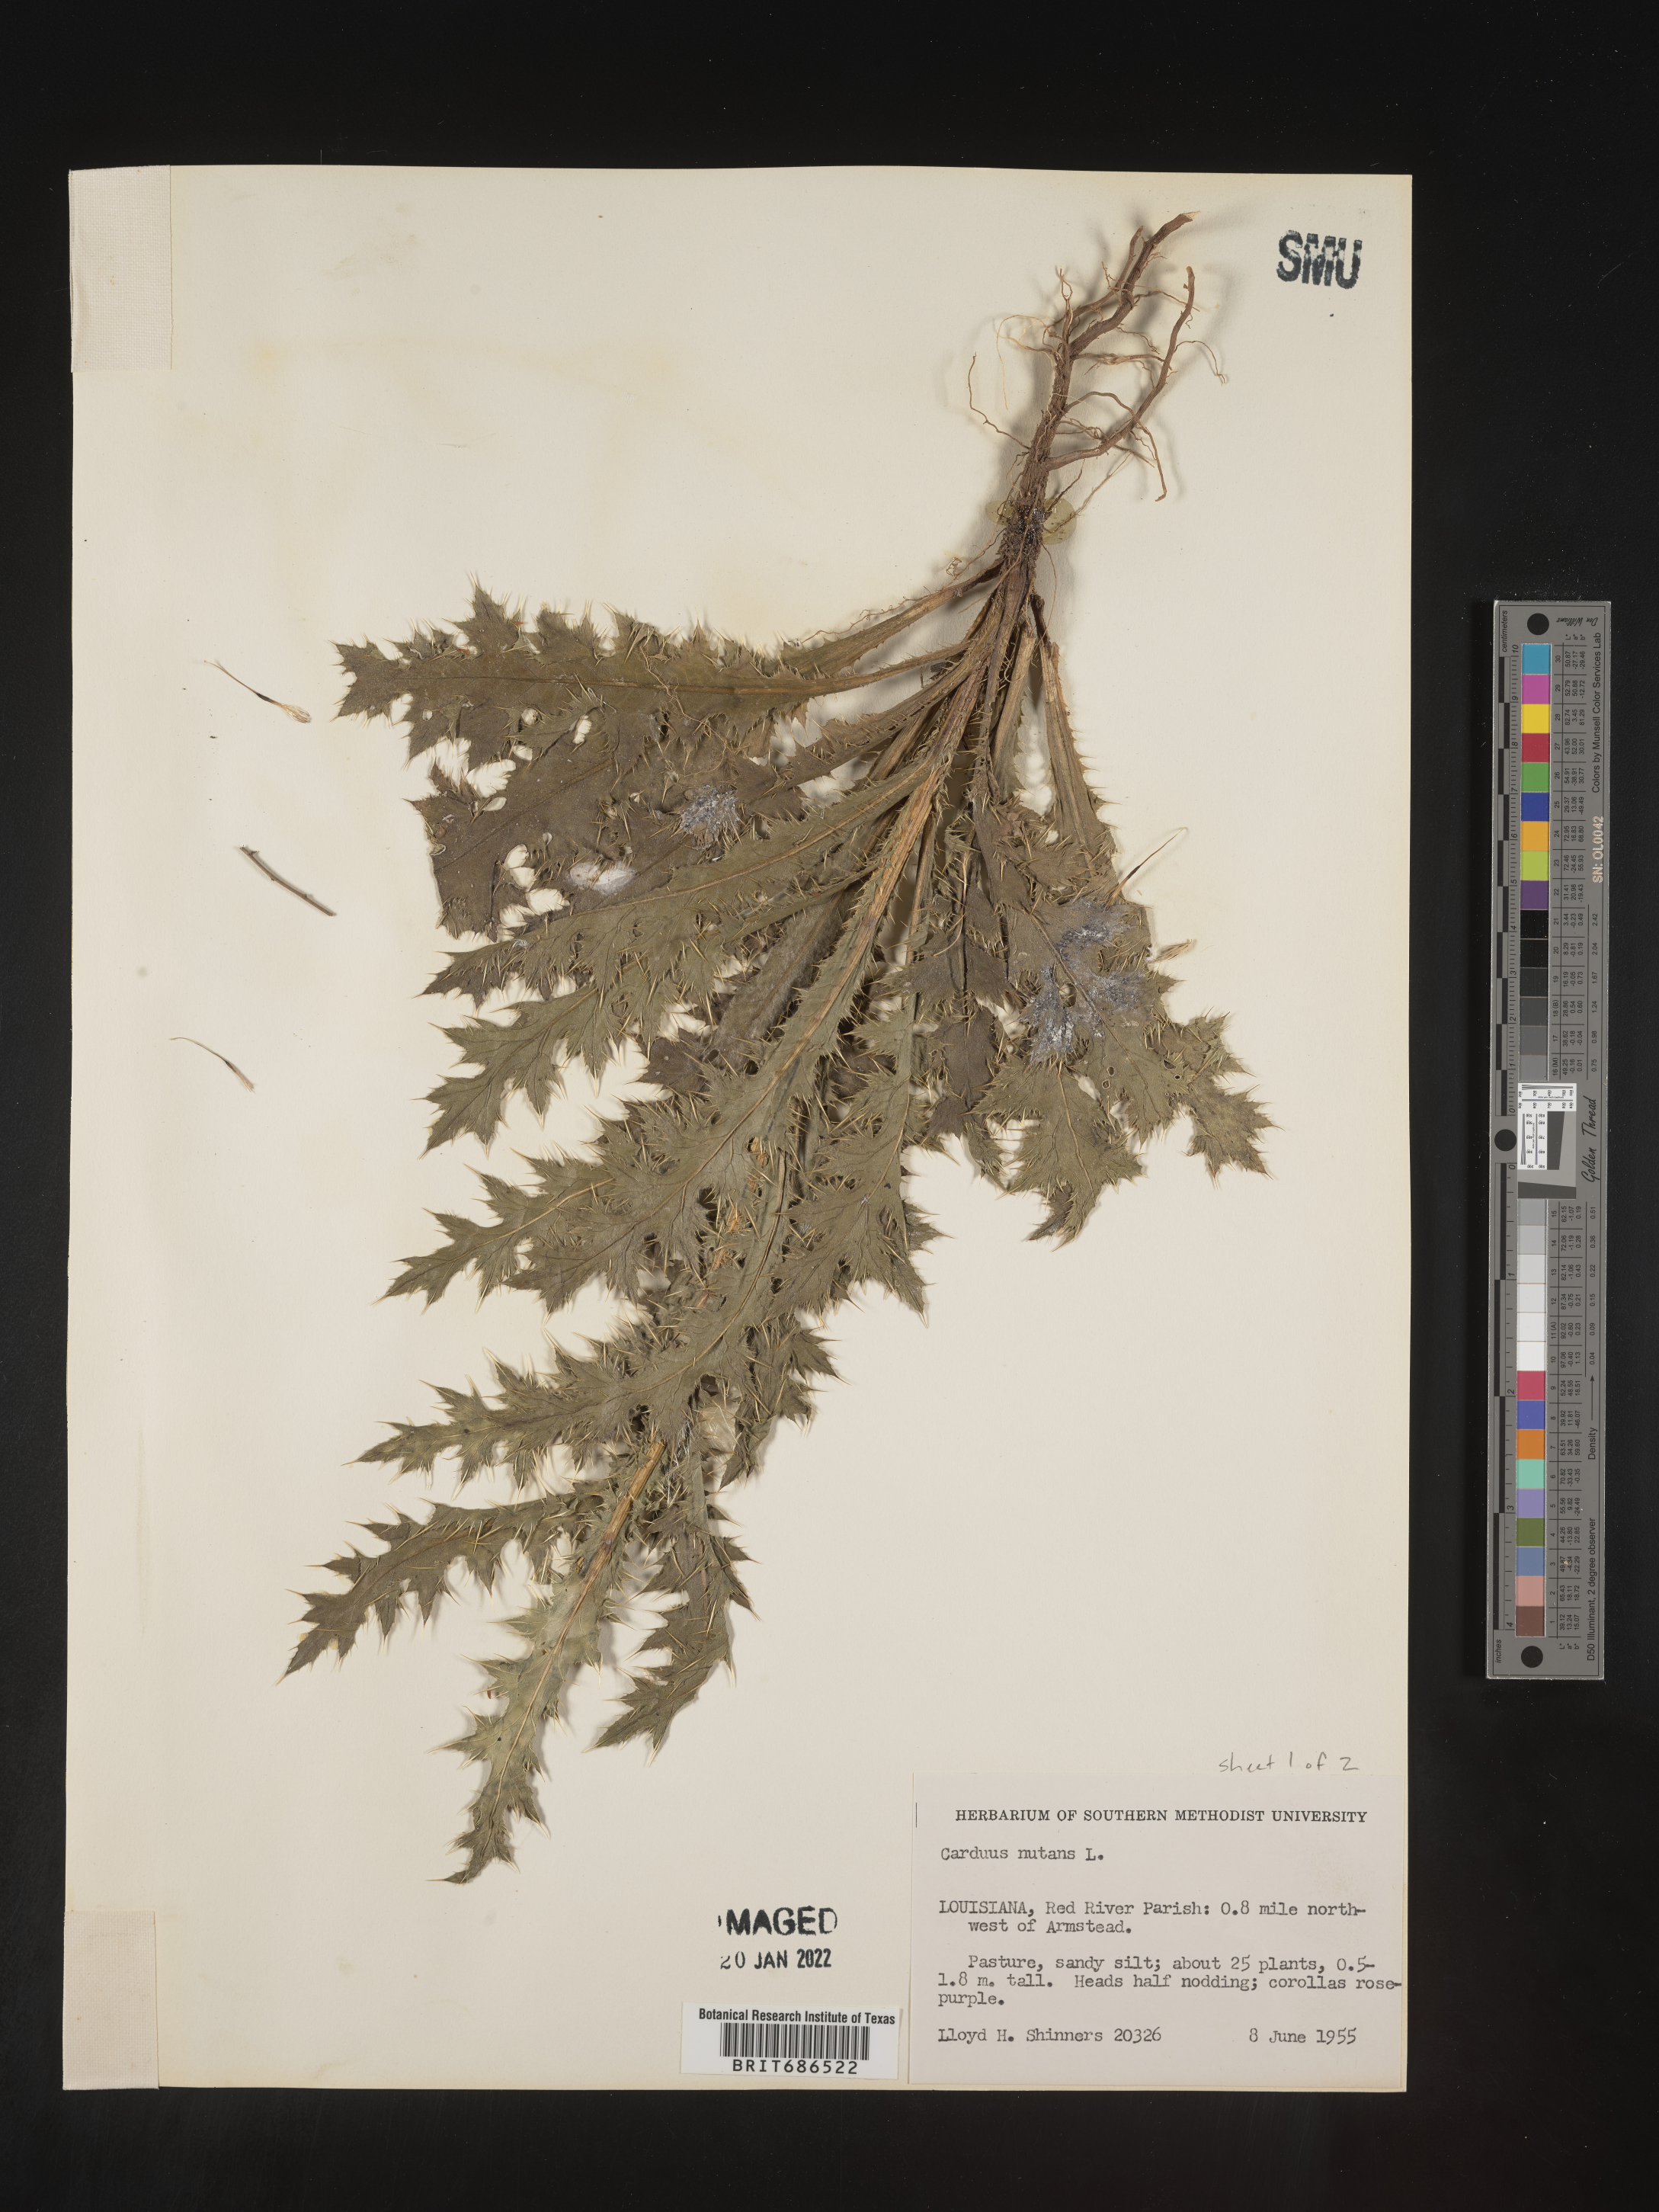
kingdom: Plantae
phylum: Tracheophyta
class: Magnoliopsida
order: Asterales
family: Asteraceae
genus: Carduus
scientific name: Carduus nutans
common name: Musk thistle
